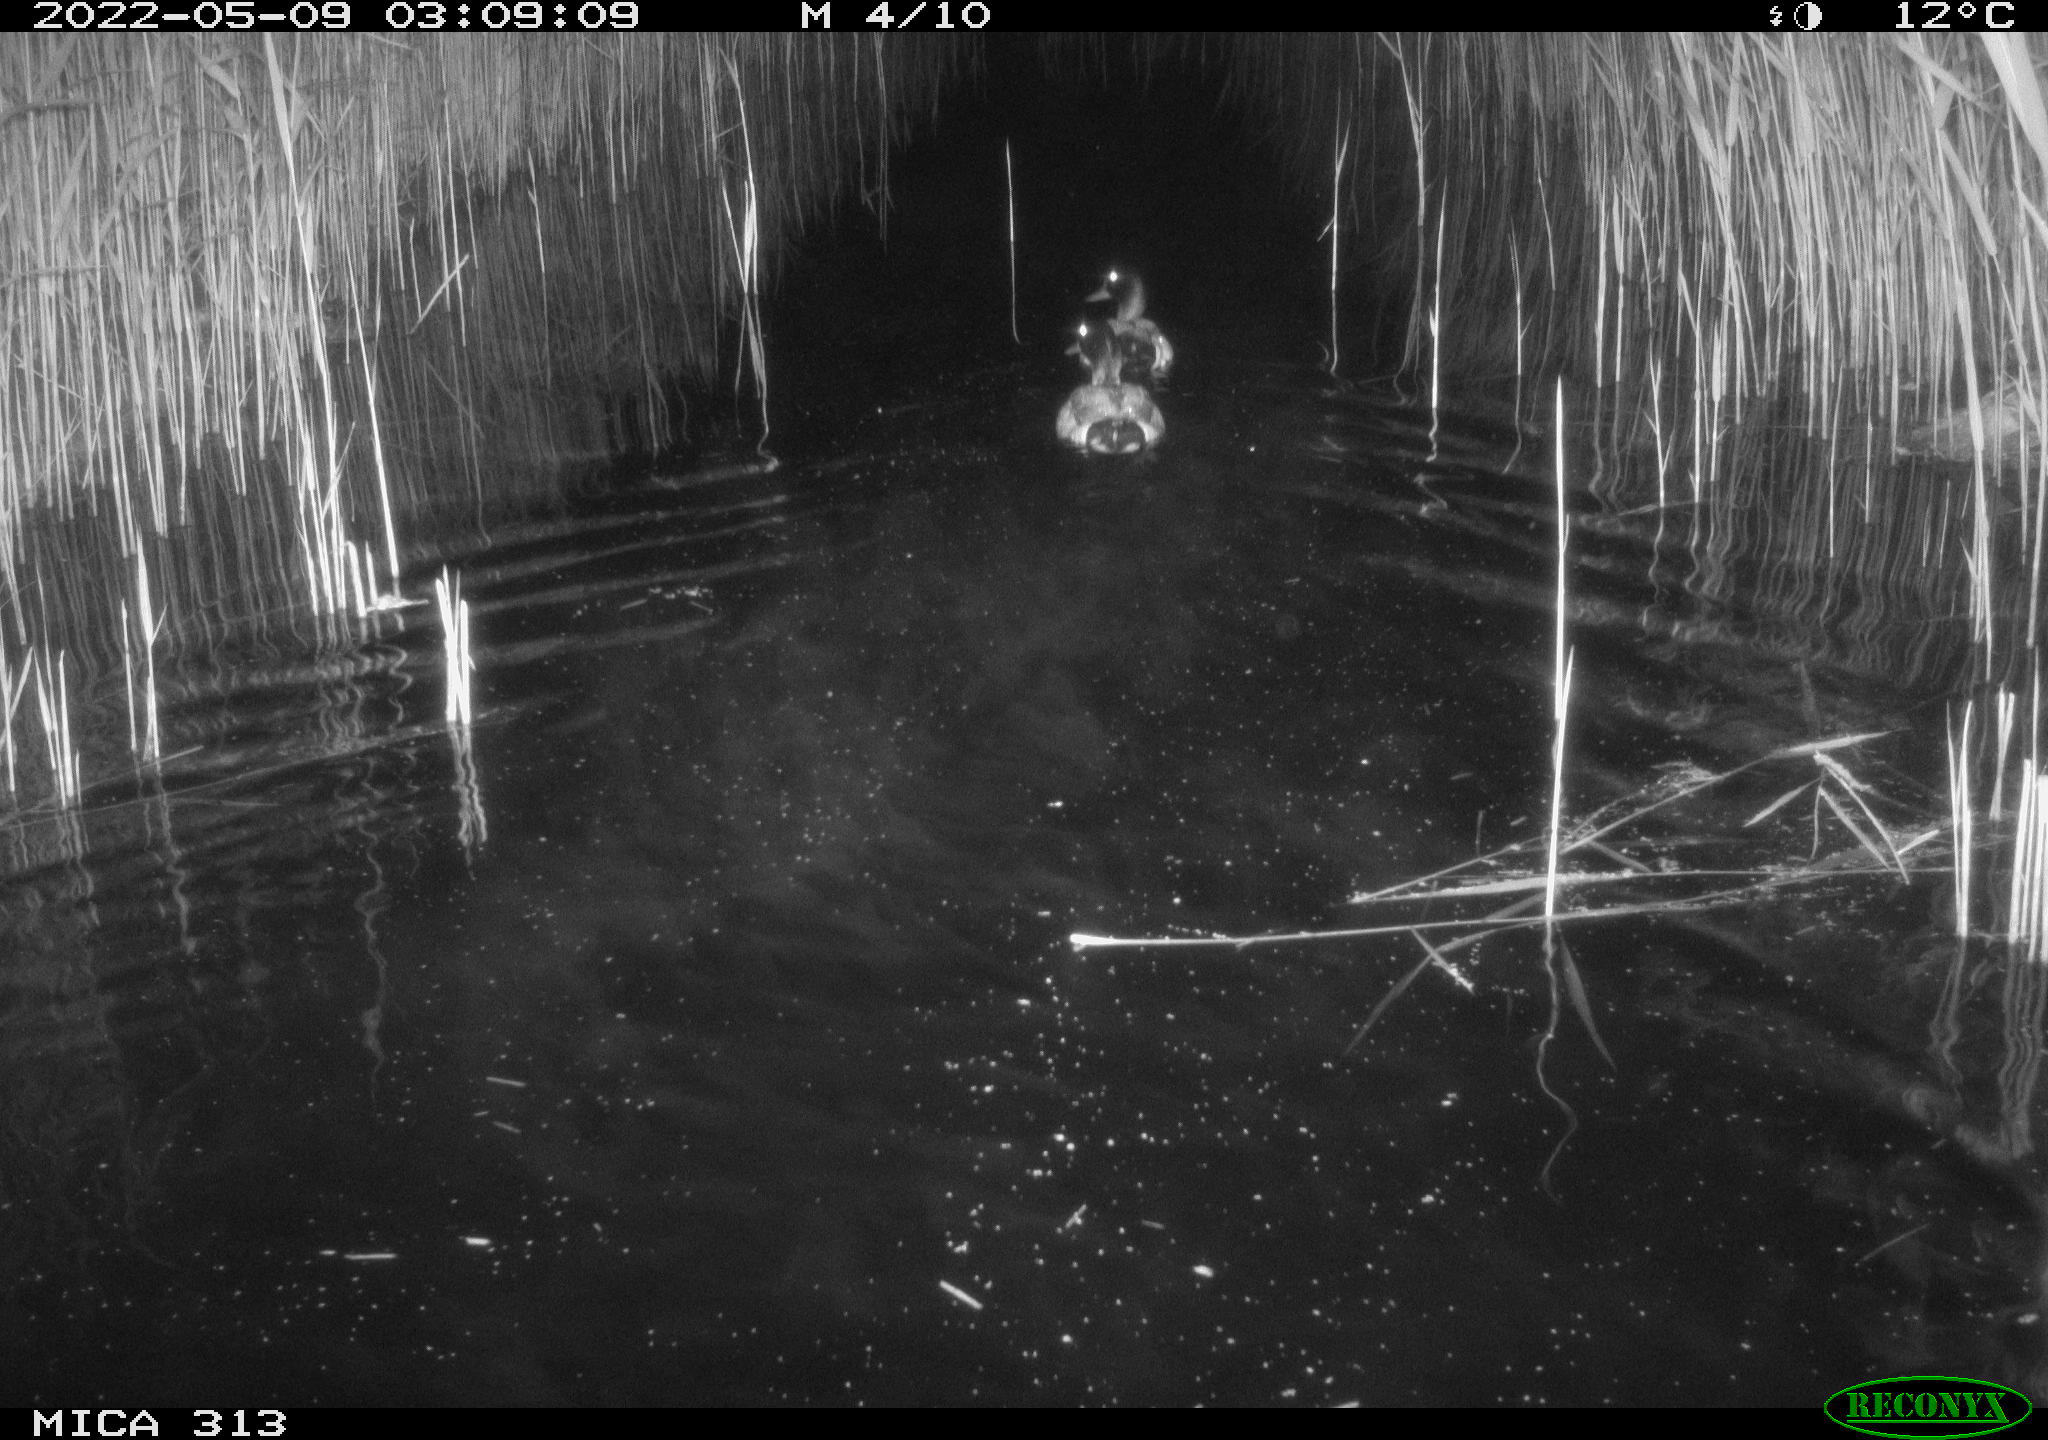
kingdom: Animalia
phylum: Chordata
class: Aves
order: Anseriformes
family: Anatidae
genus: Anas
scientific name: Anas platyrhynchos
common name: Mallard
